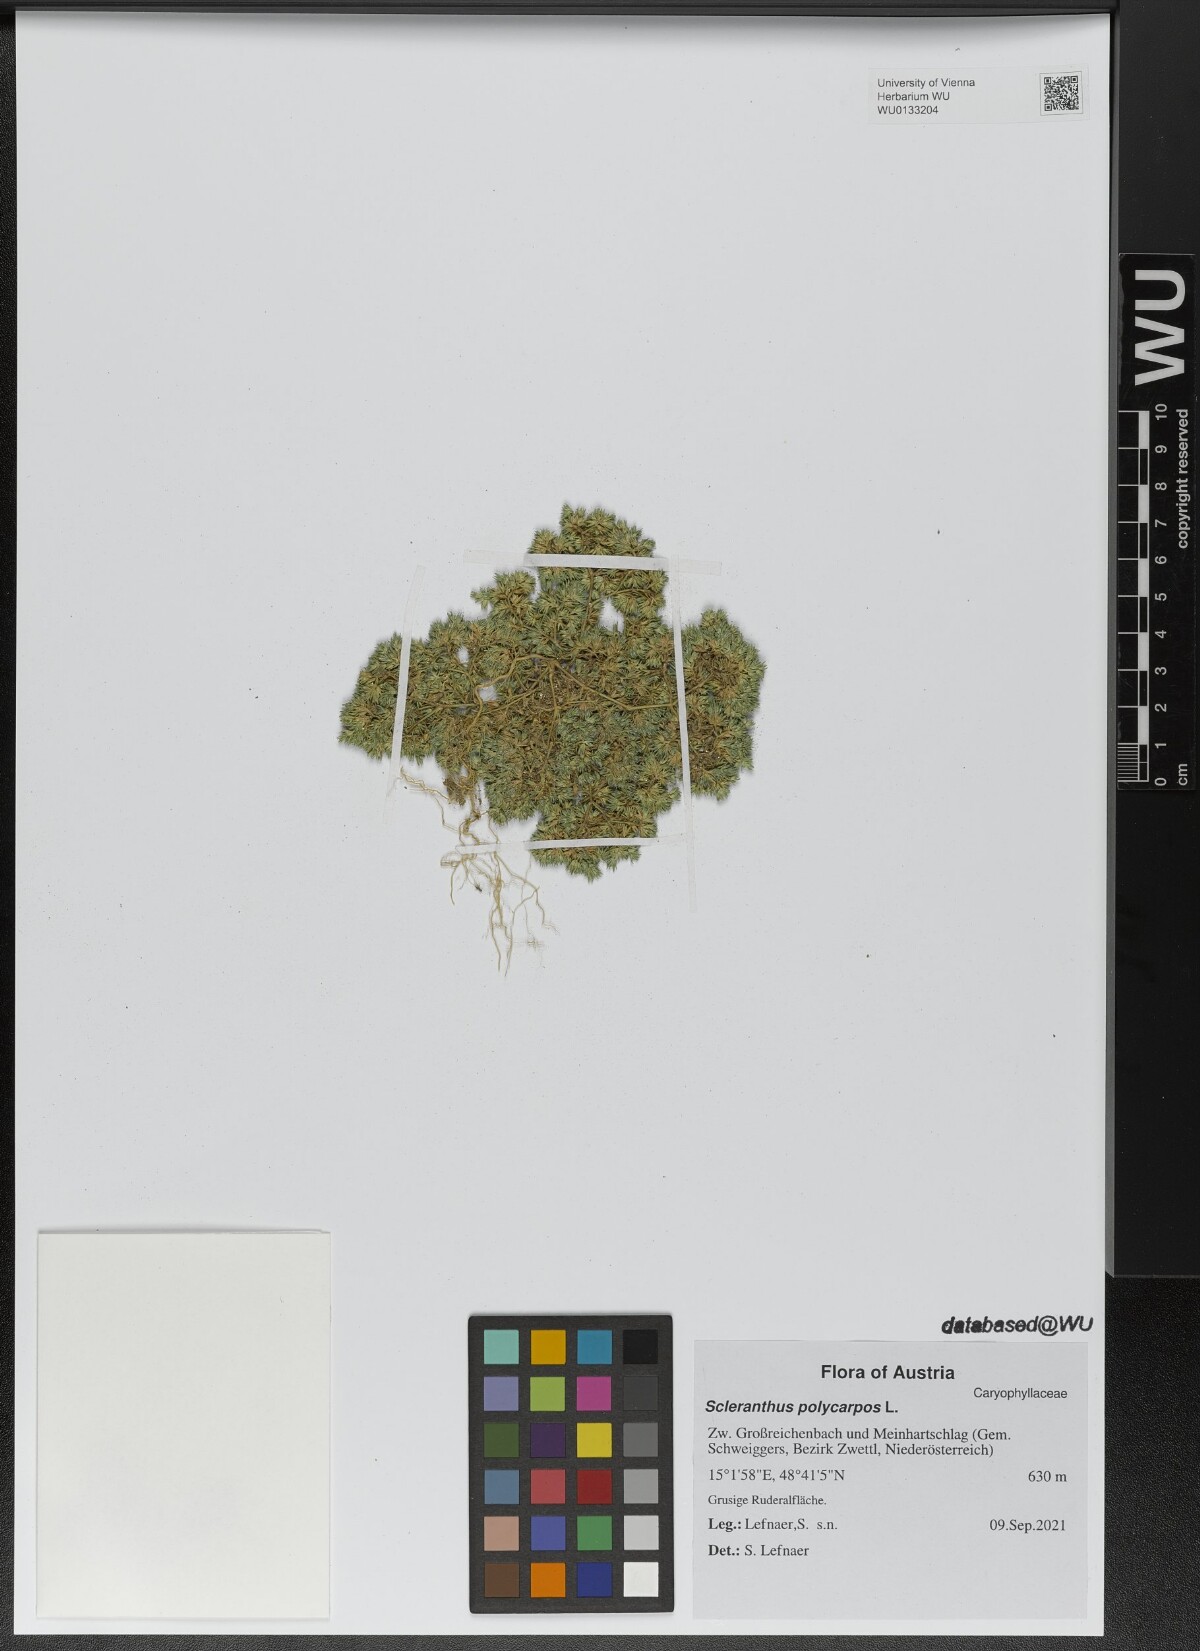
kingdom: Plantae
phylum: Tracheophyta
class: Magnoliopsida
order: Caryophyllales
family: Caryophyllaceae
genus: Scleranthus
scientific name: Scleranthus annuus
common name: Annual knawel
